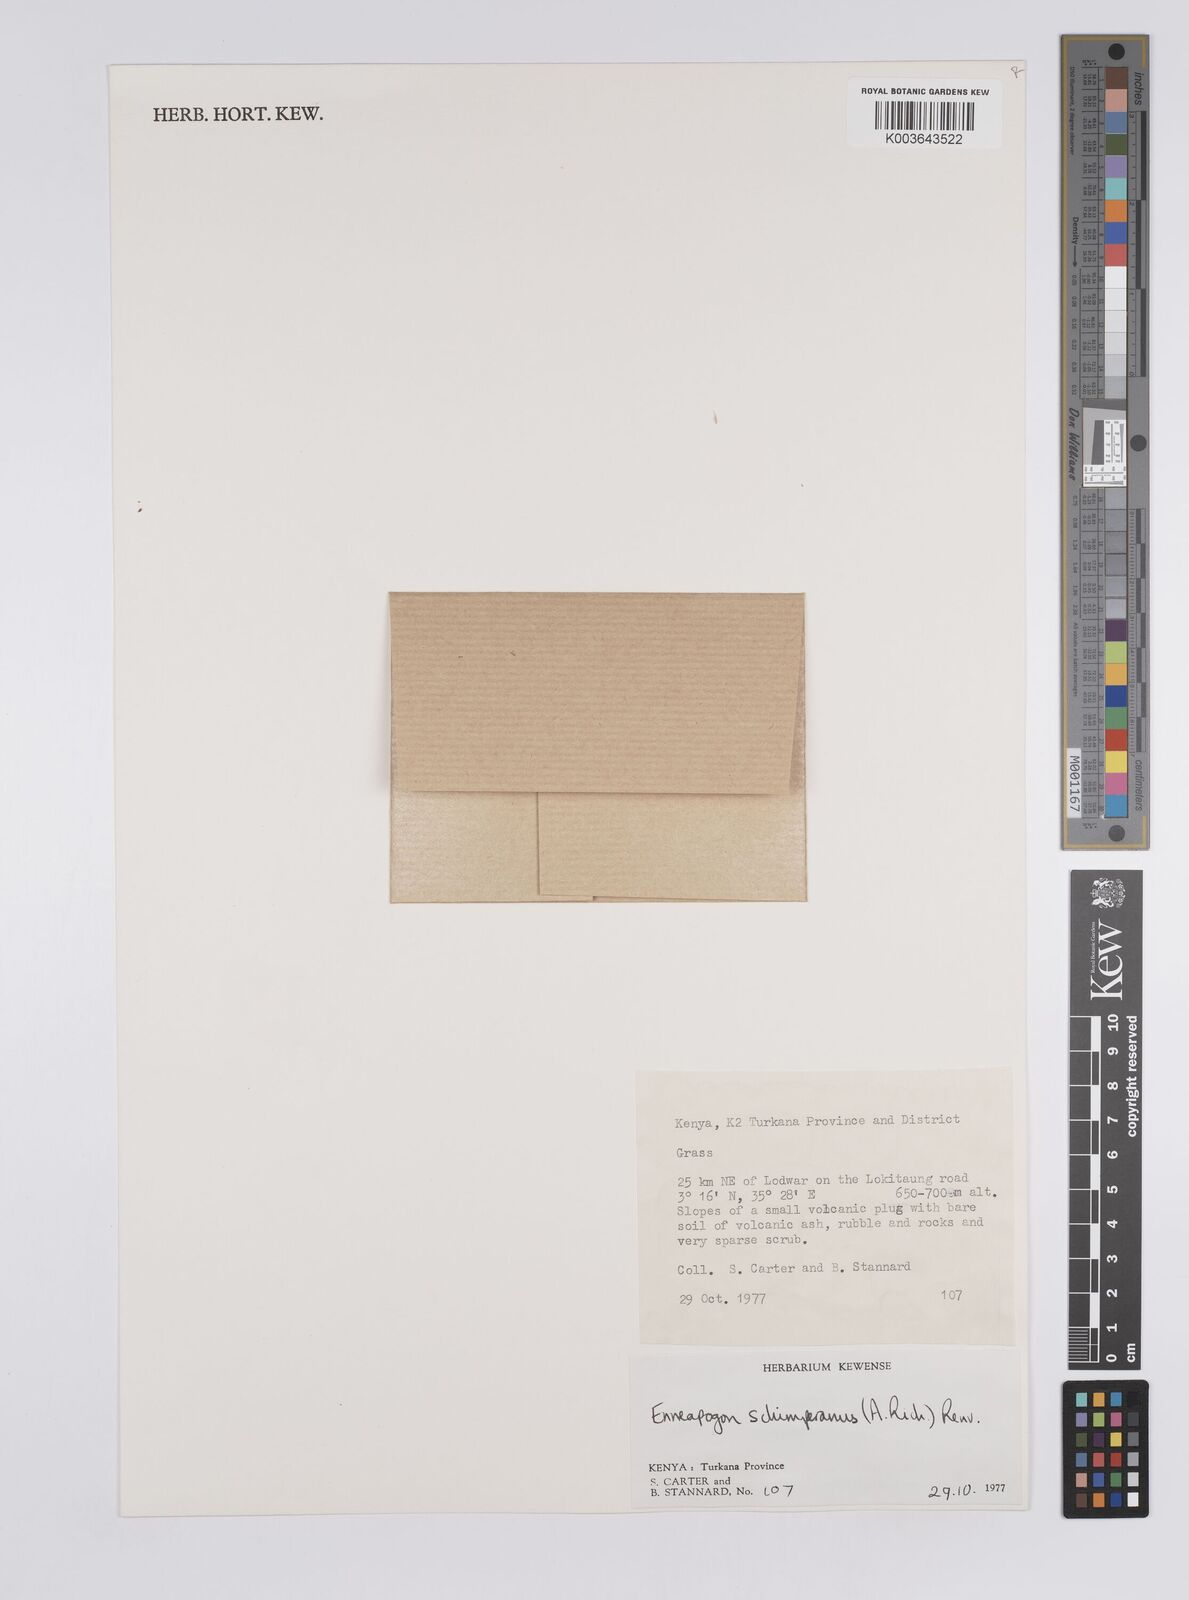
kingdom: Plantae
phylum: Tracheophyta
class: Liliopsida
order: Poales
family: Poaceae
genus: Enneapogon
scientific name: Enneapogon lophotrichus
